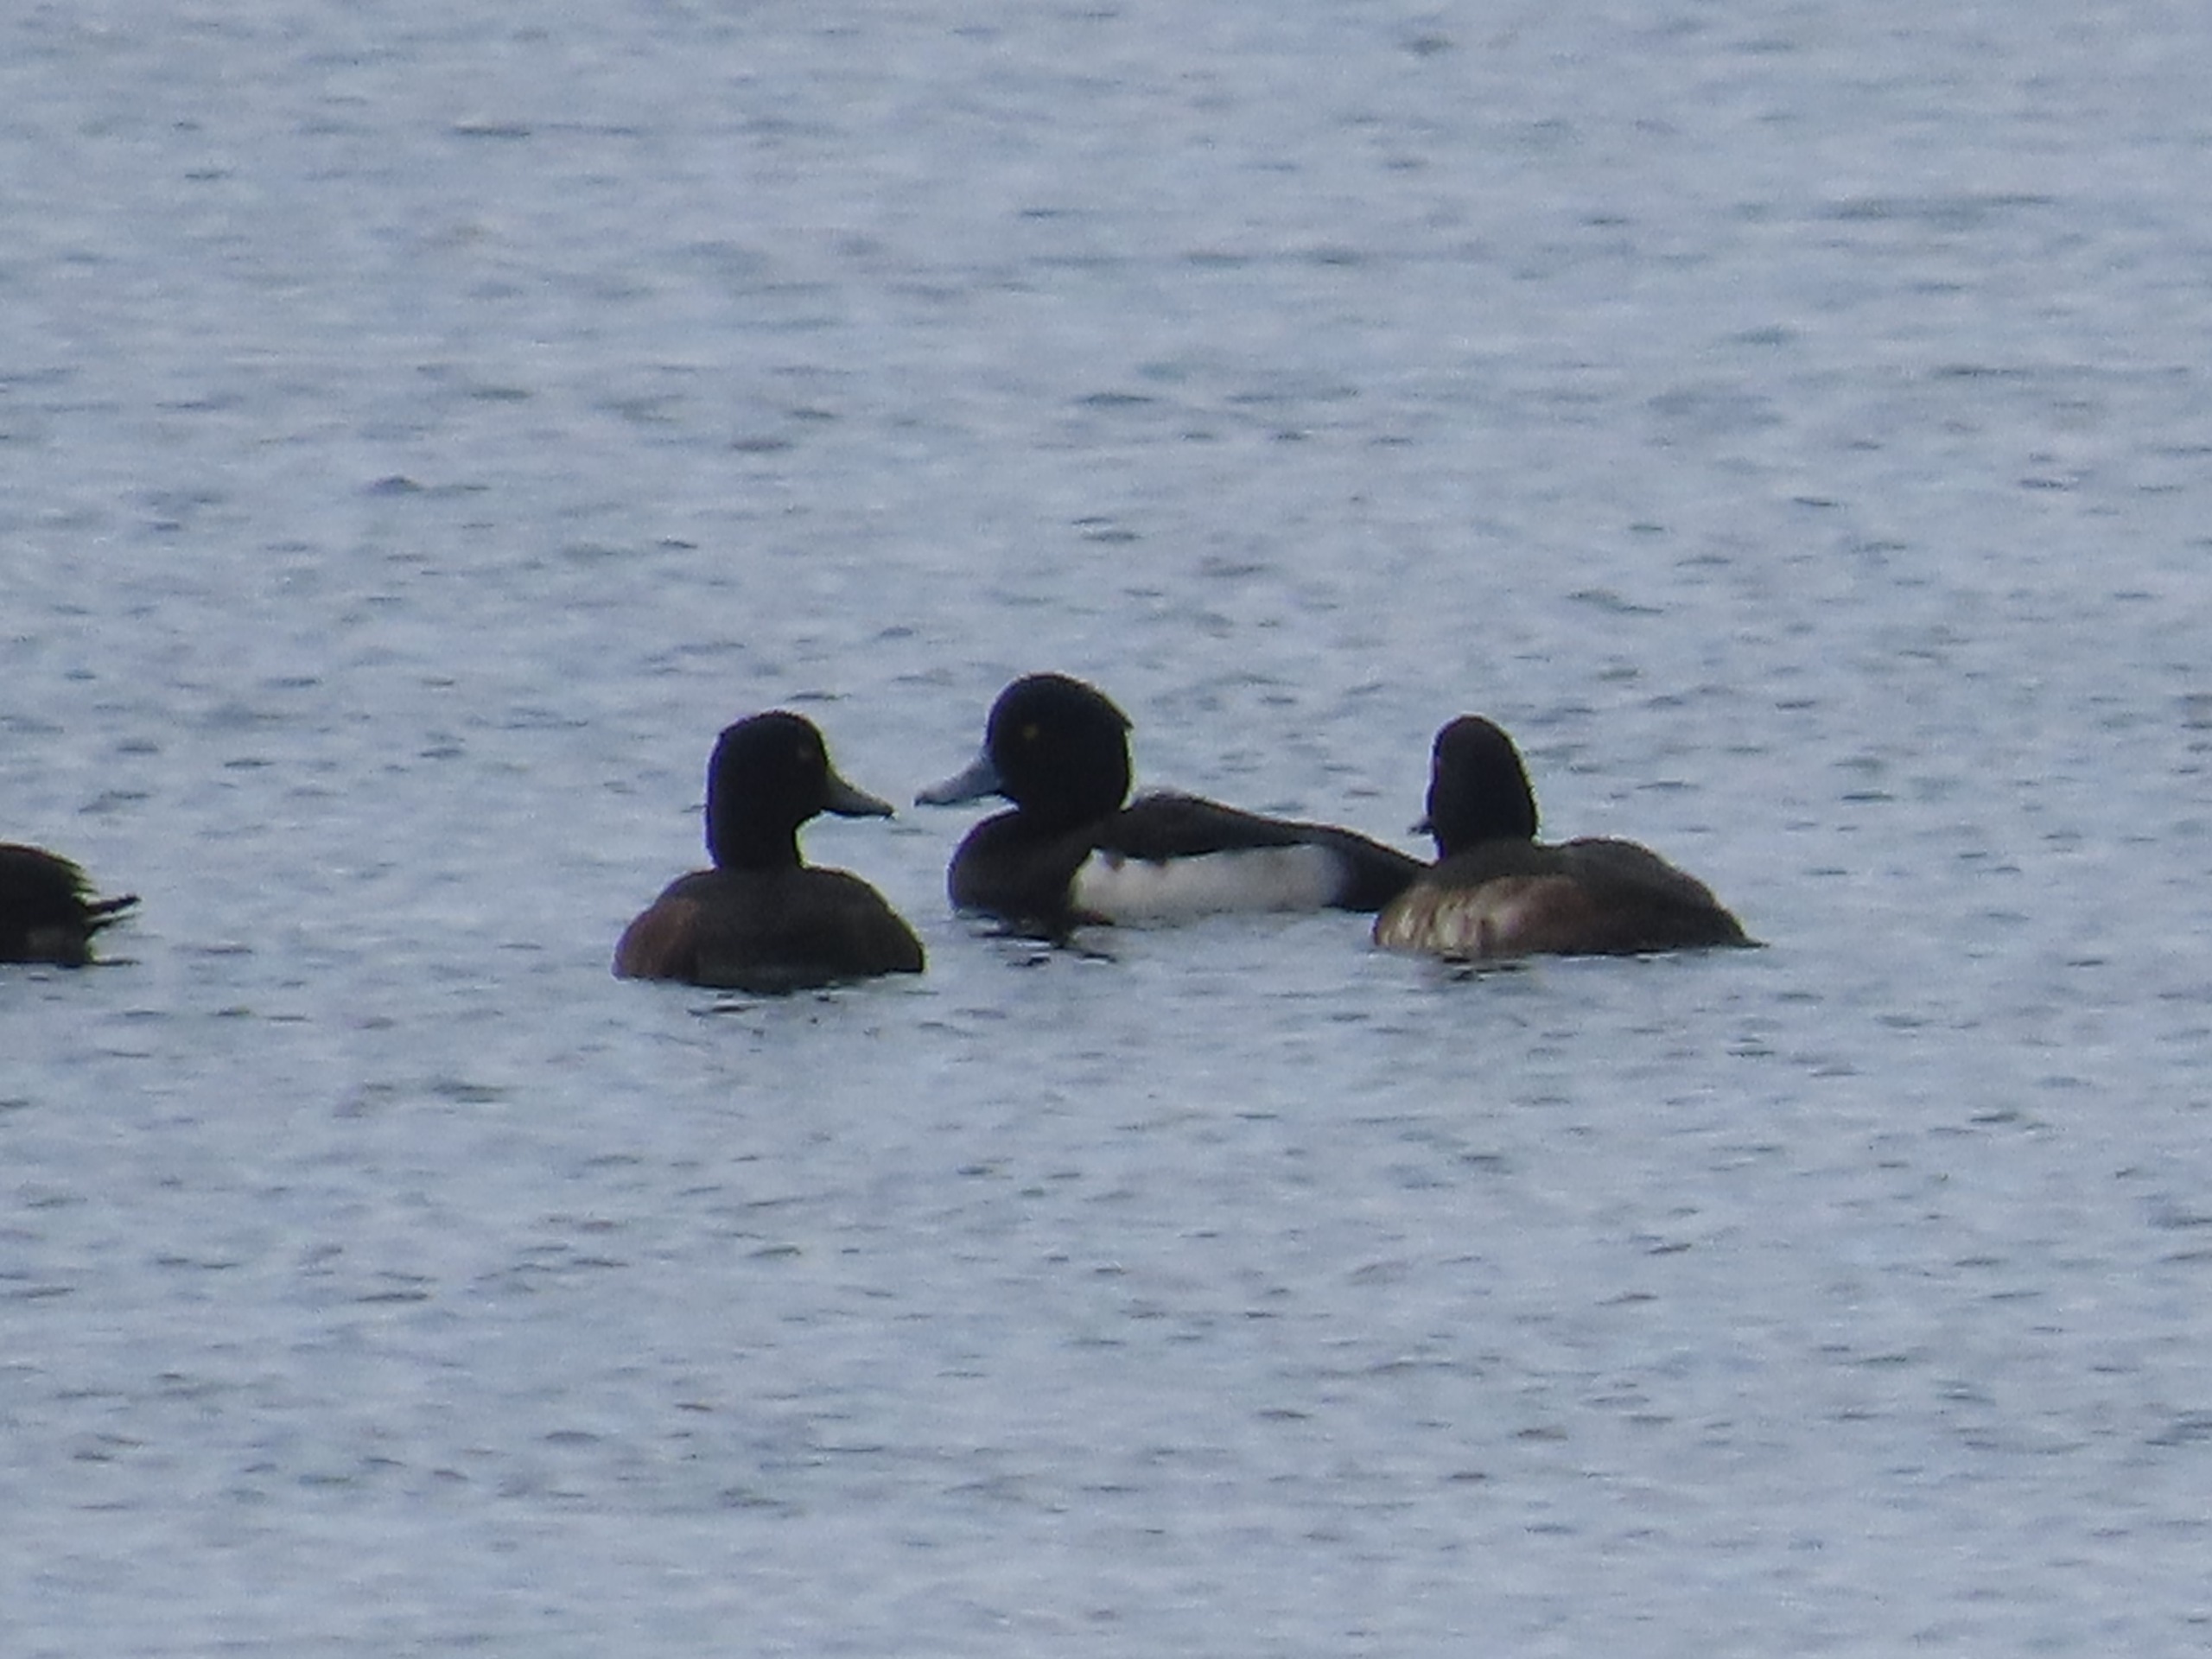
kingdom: Animalia
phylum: Chordata
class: Aves
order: Anseriformes
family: Anatidae
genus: Aythya
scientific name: Aythya fuligula
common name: Troldand
